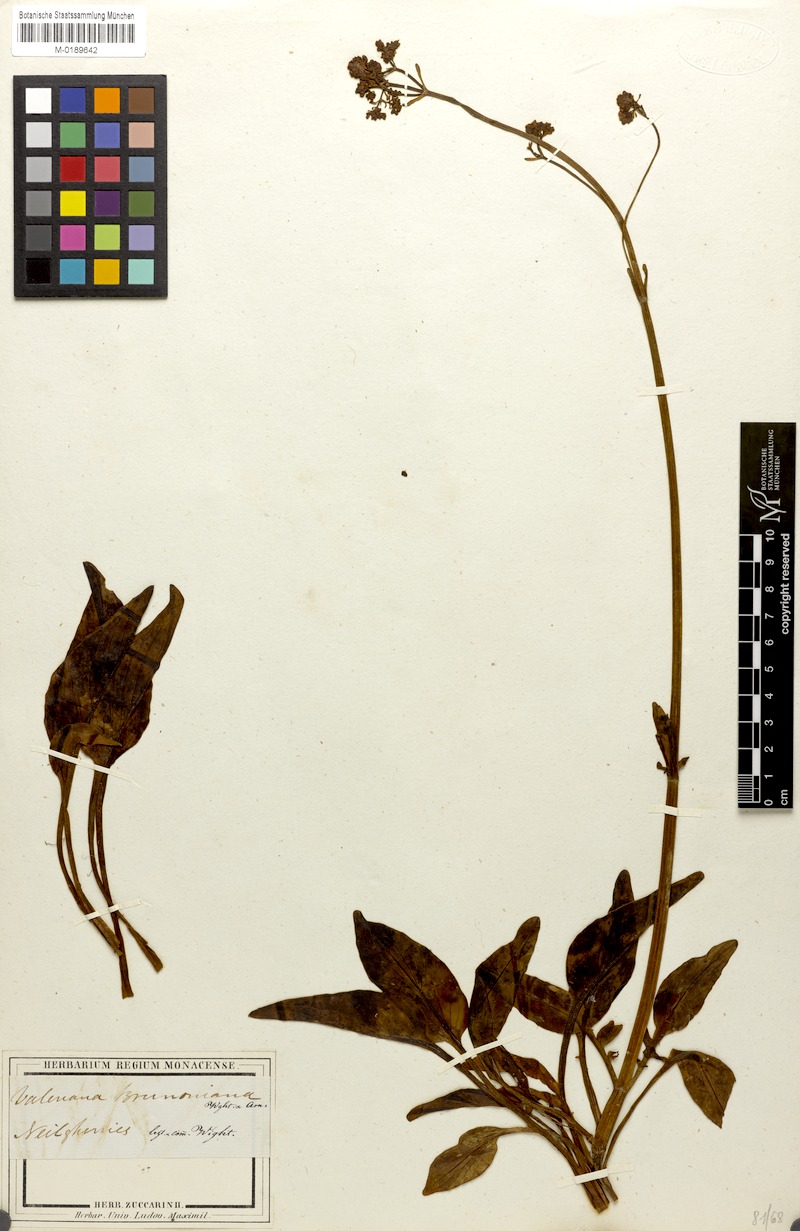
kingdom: Plantae
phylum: Tracheophyta
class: Magnoliopsida
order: Dipsacales
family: Caprifoliaceae
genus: Valeriana
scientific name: Valeriana leschenaultii
